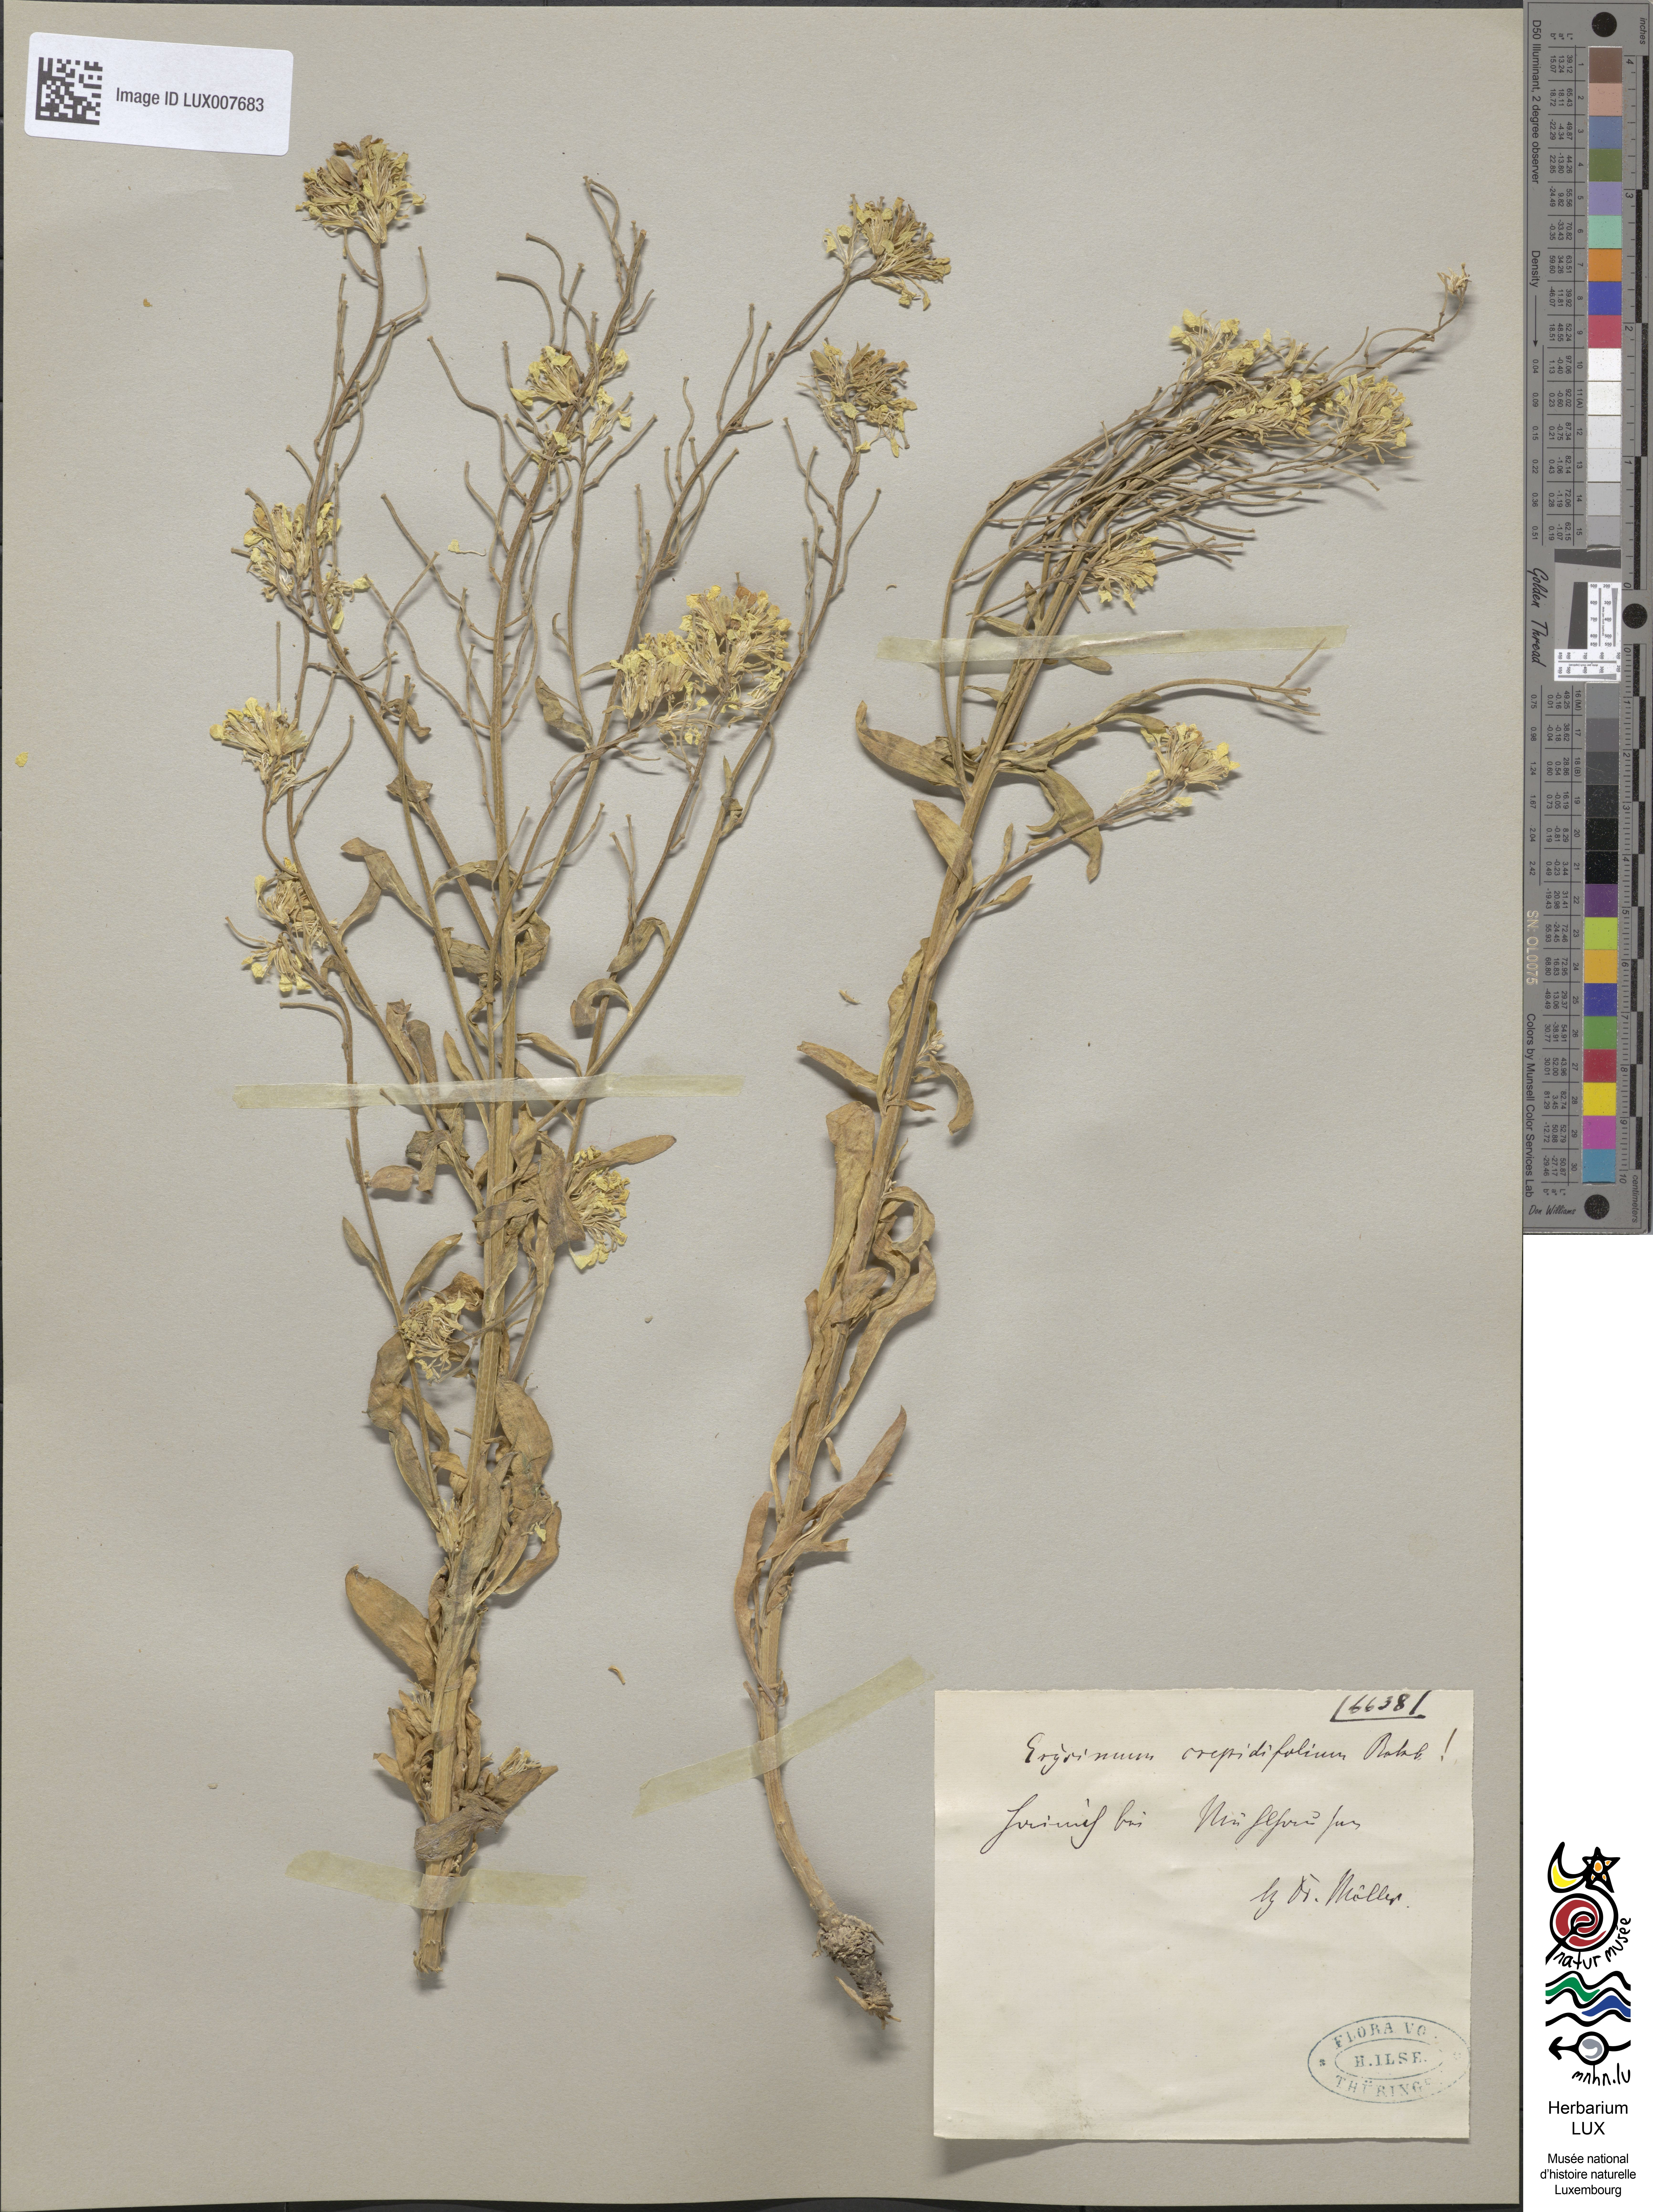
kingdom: Plantae
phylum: Tracheophyta
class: Magnoliopsida
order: Brassicales
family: Brassicaceae
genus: Erysimum
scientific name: Erysimum crepidifolium
